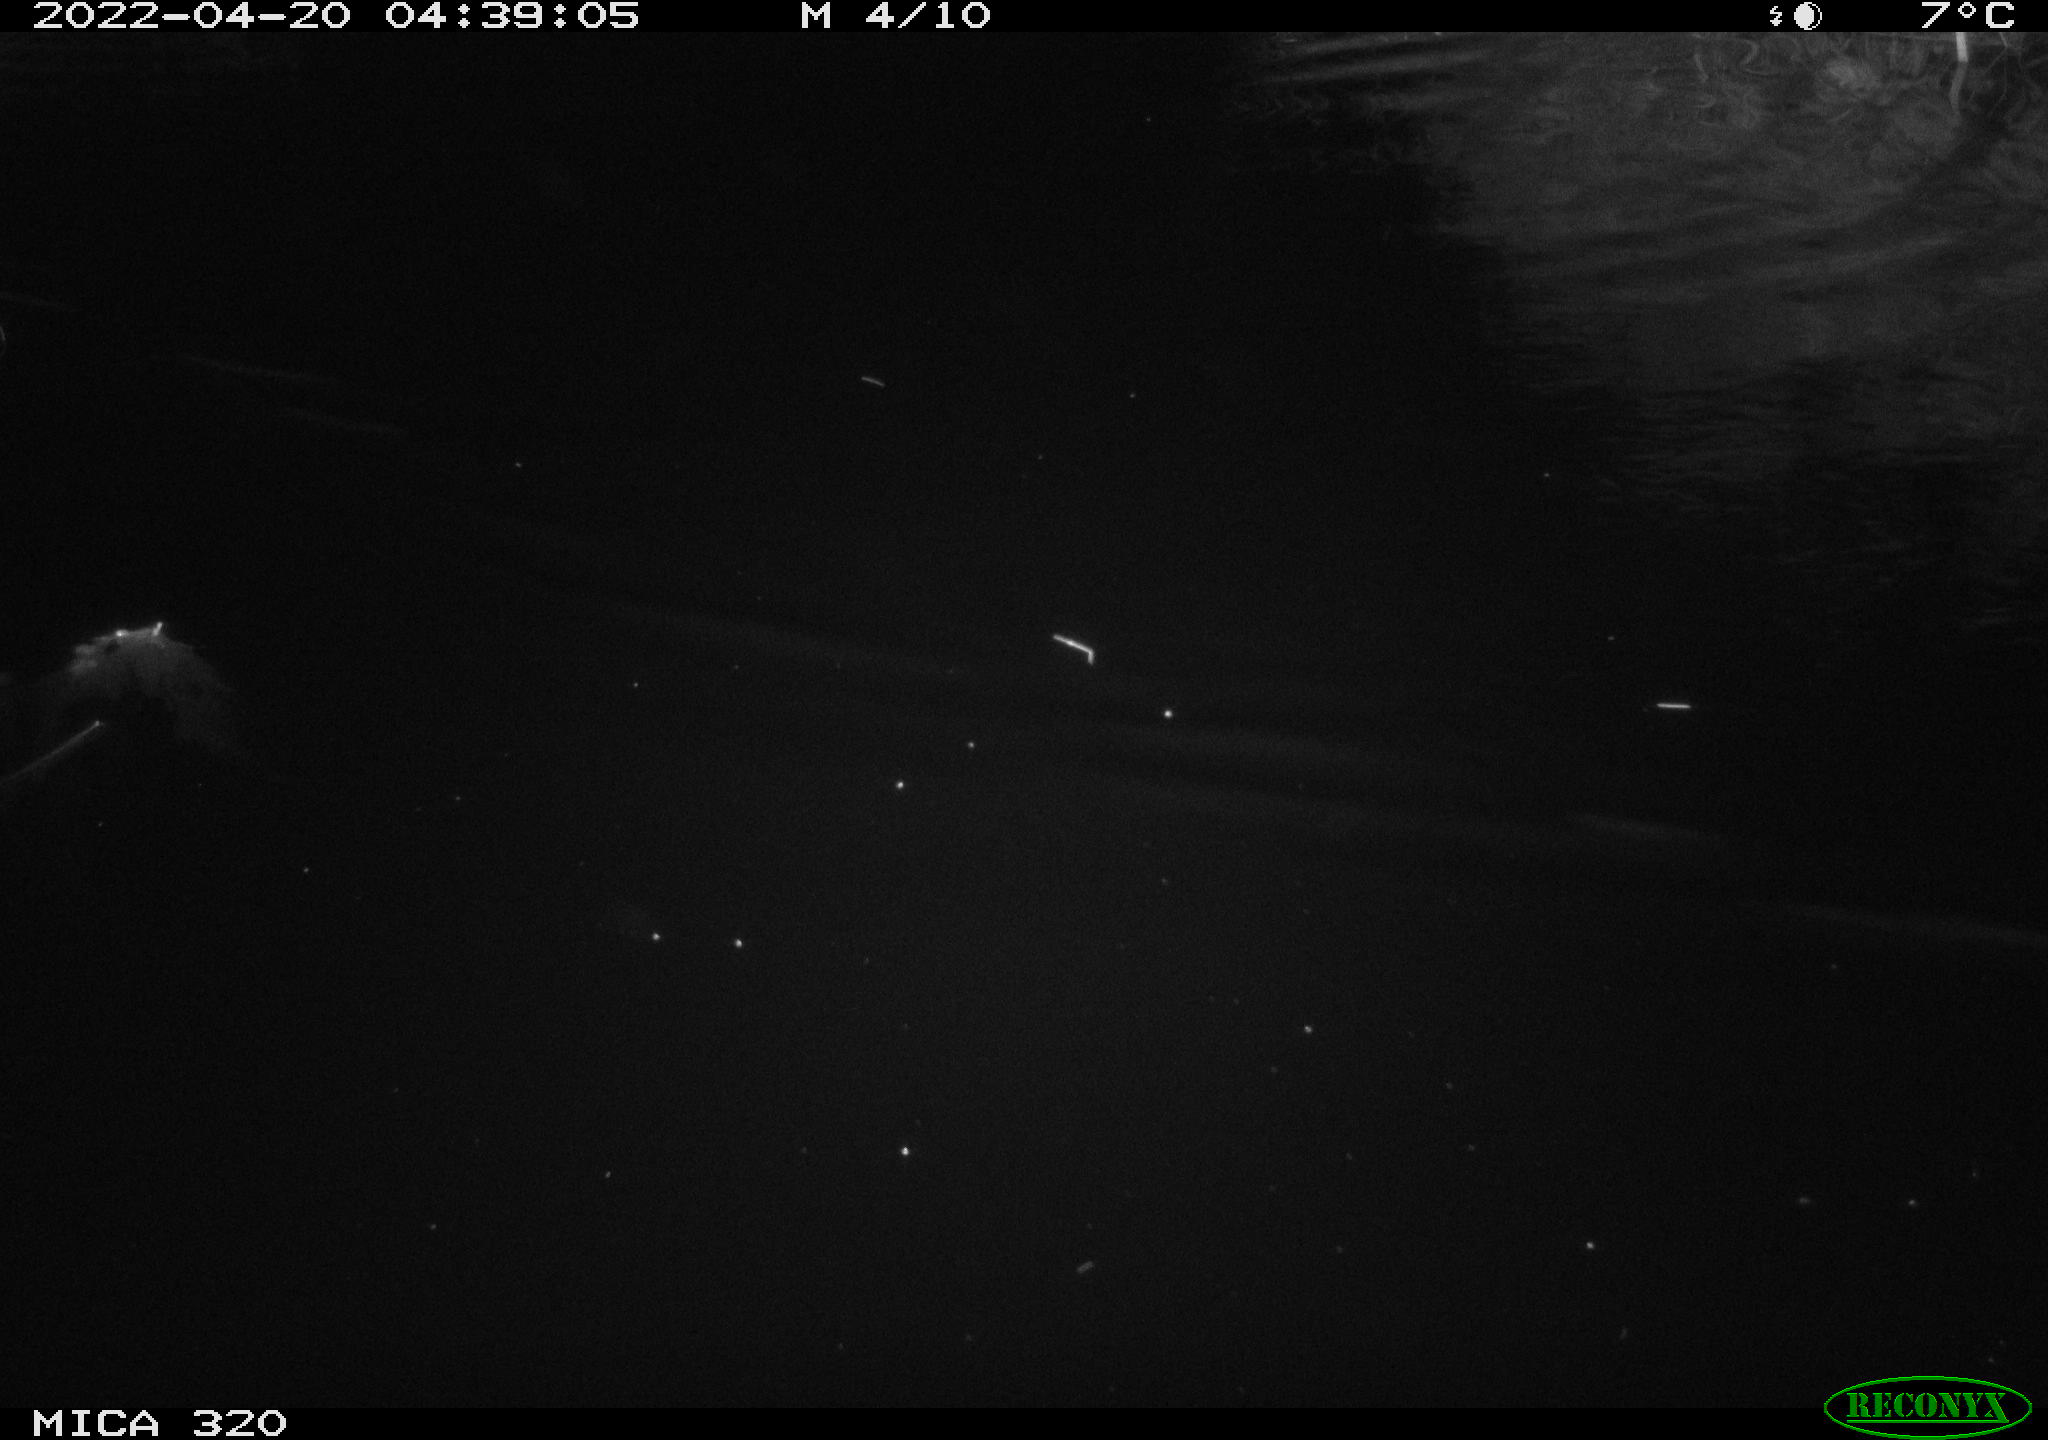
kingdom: Animalia
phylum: Chordata
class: Aves
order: Anseriformes
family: Anatidae
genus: Anas
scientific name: Anas platyrhynchos
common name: Mallard
